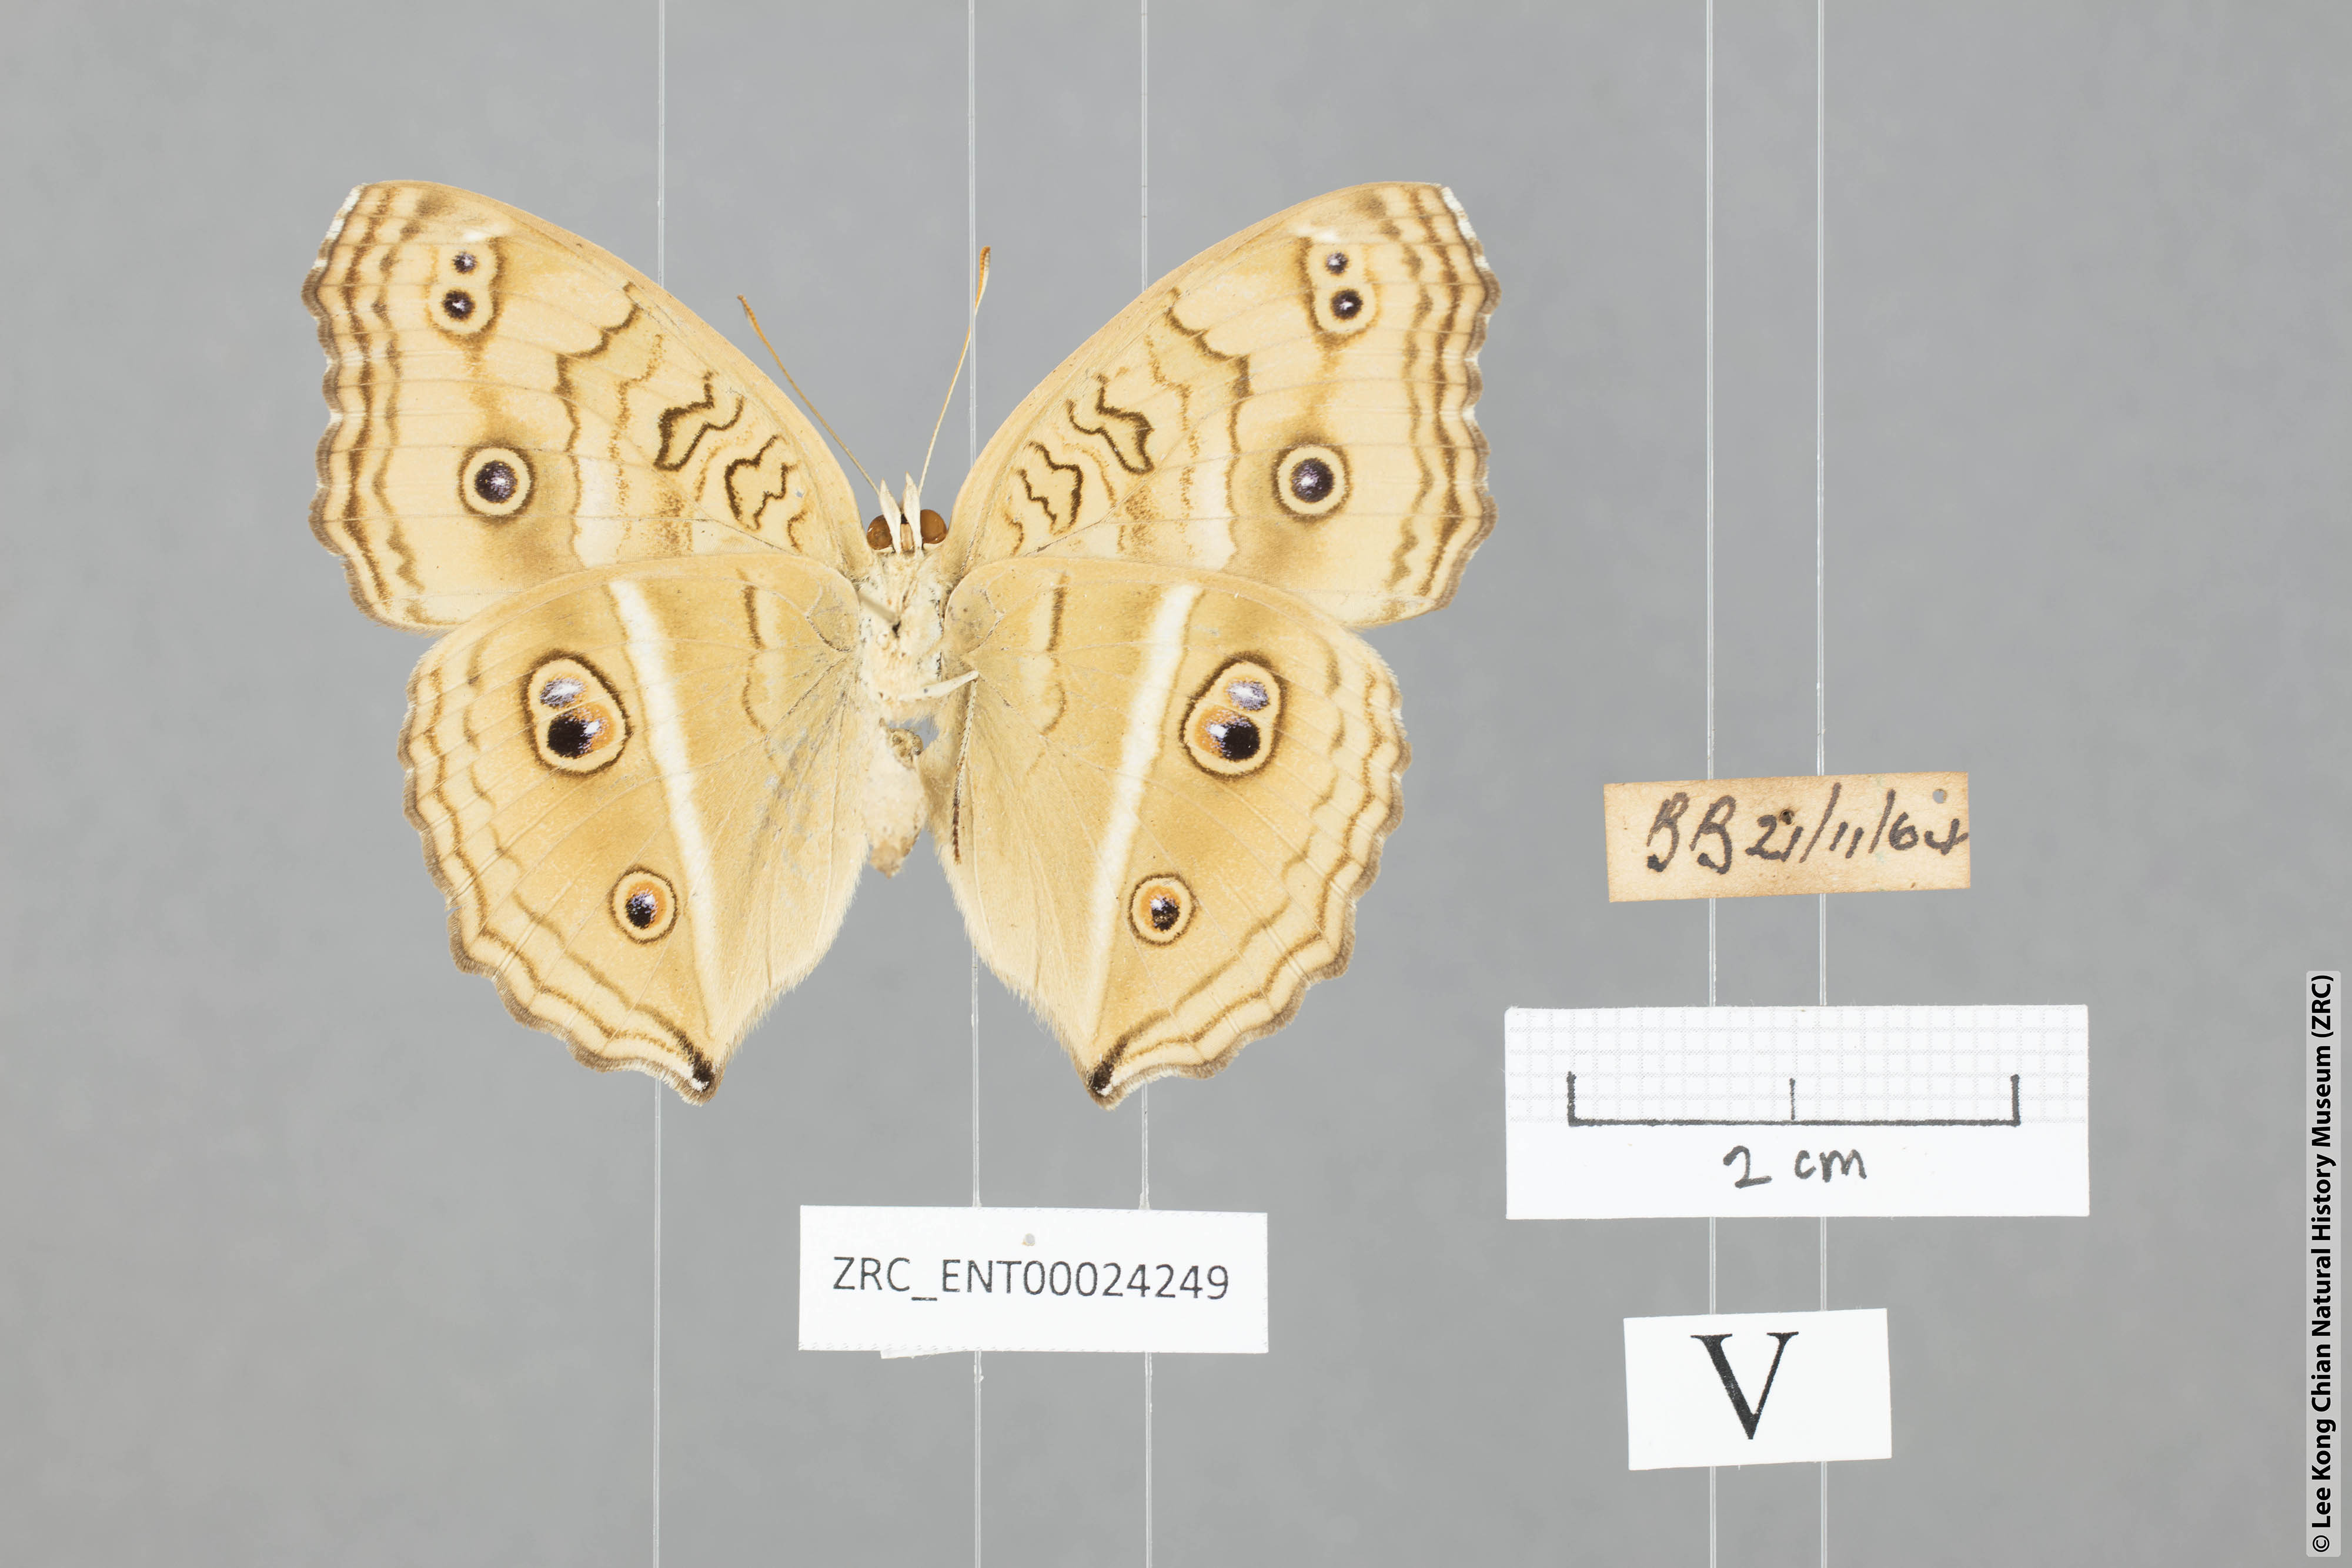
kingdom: Animalia
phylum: Arthropoda
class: Insecta
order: Lepidoptera
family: Nymphalidae
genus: Junonia
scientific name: Junonia almana
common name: Peacock pansy
